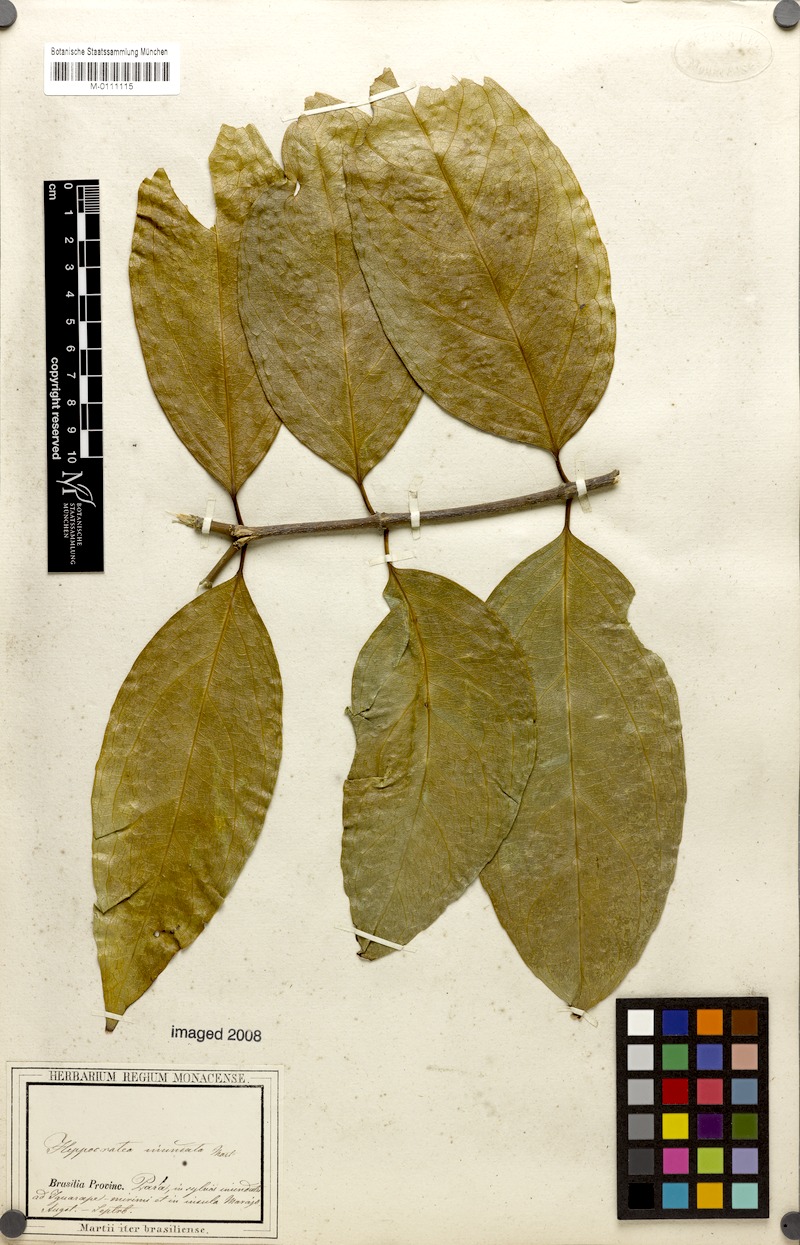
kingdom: Plantae
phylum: Tracheophyta
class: Magnoliopsida
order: Celastrales
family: Celastraceae
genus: Cuervea
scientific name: Cuervea kappleriana
